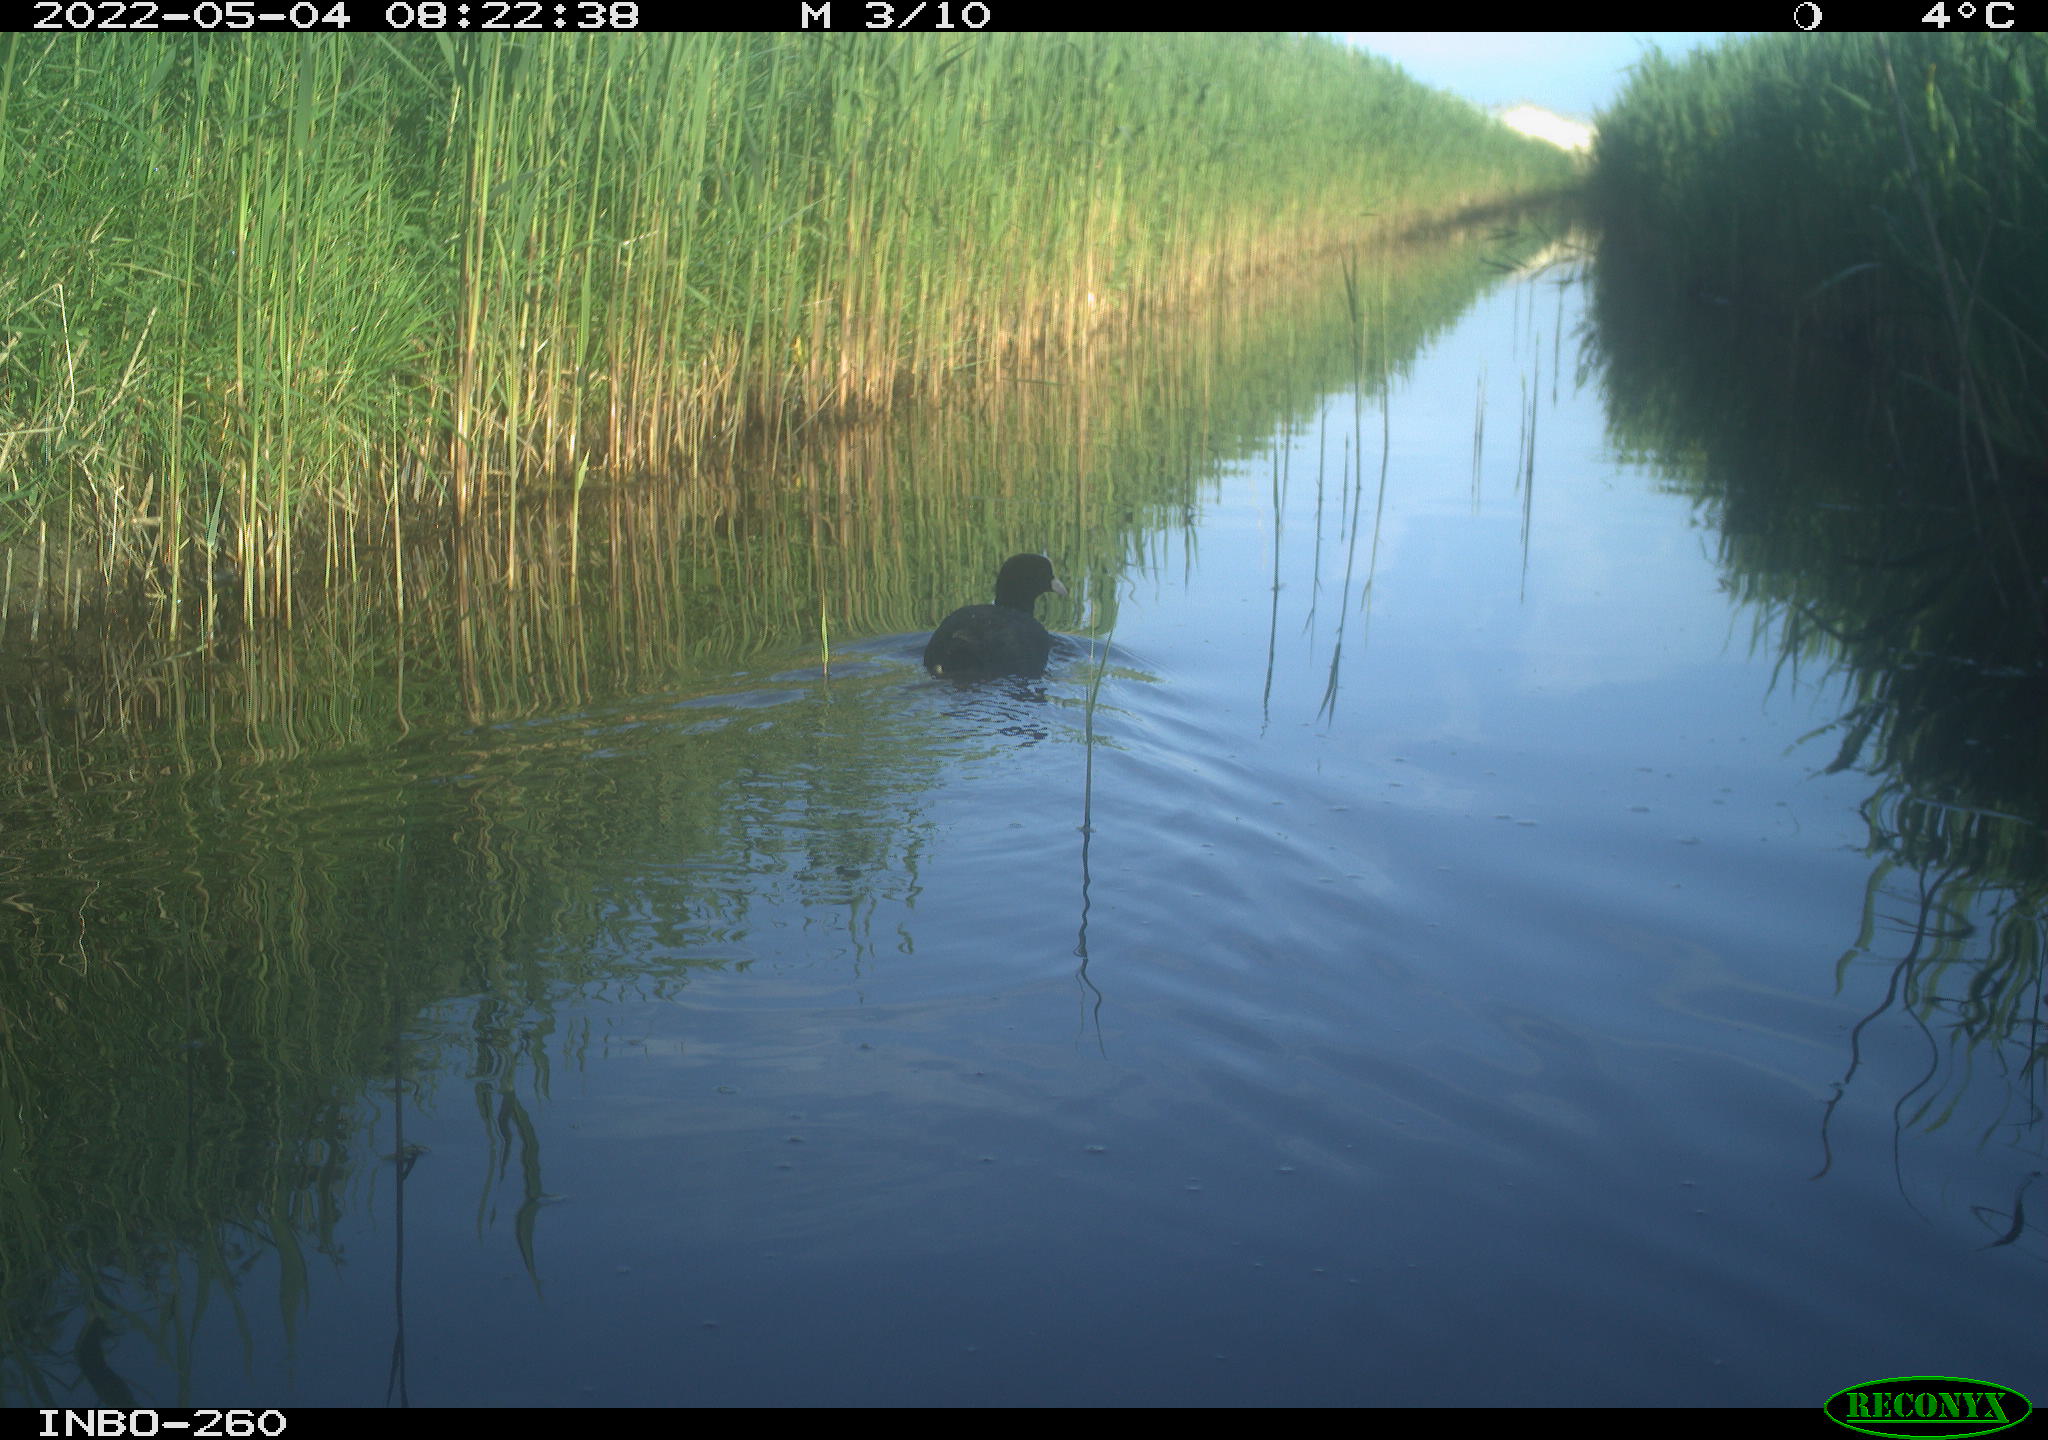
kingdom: Animalia
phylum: Chordata
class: Aves
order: Gruiformes
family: Rallidae
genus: Fulica
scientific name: Fulica atra
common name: Eurasian coot
